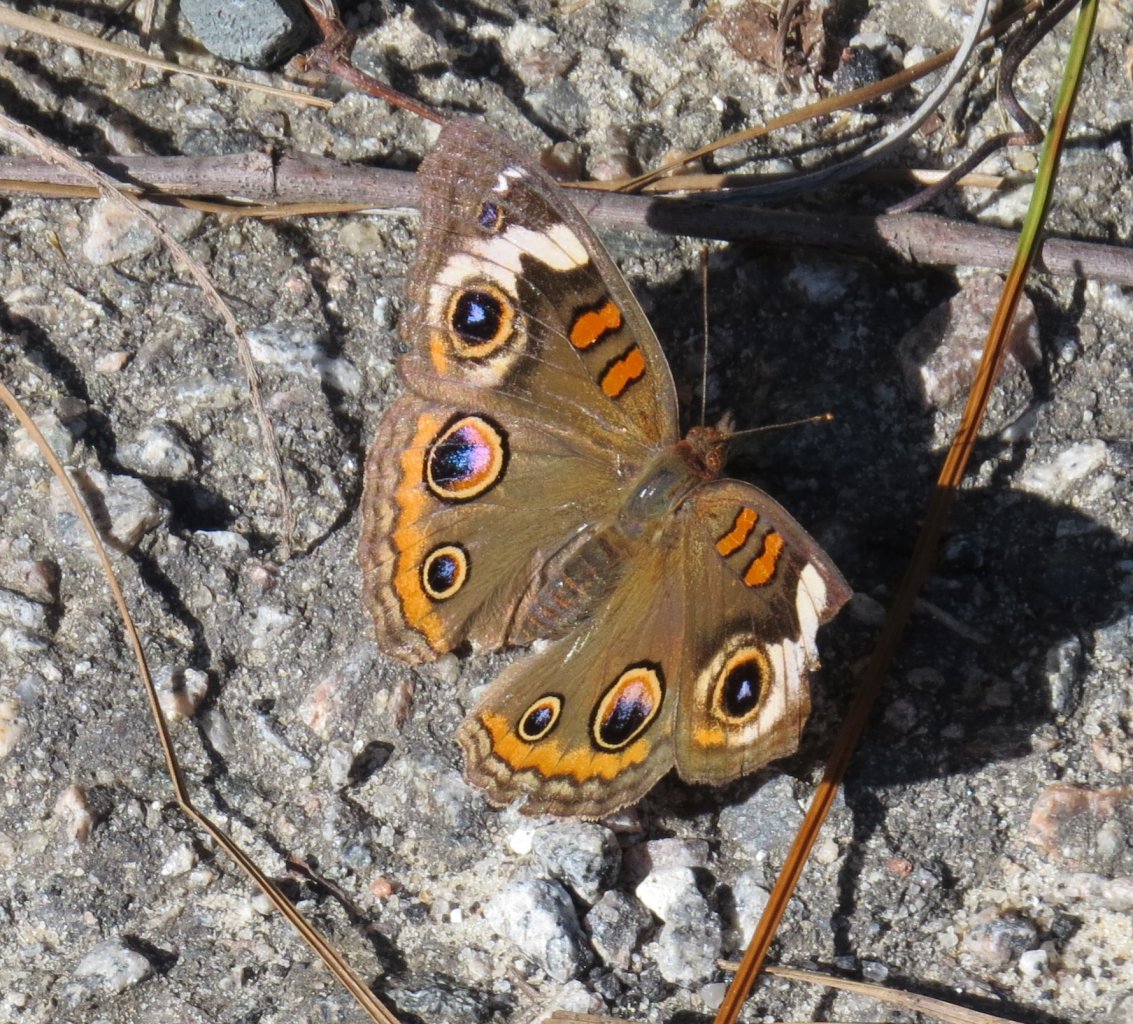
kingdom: Animalia
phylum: Arthropoda
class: Insecta
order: Lepidoptera
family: Nymphalidae
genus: Junonia
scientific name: Junonia coenia
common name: Common Buckeye
